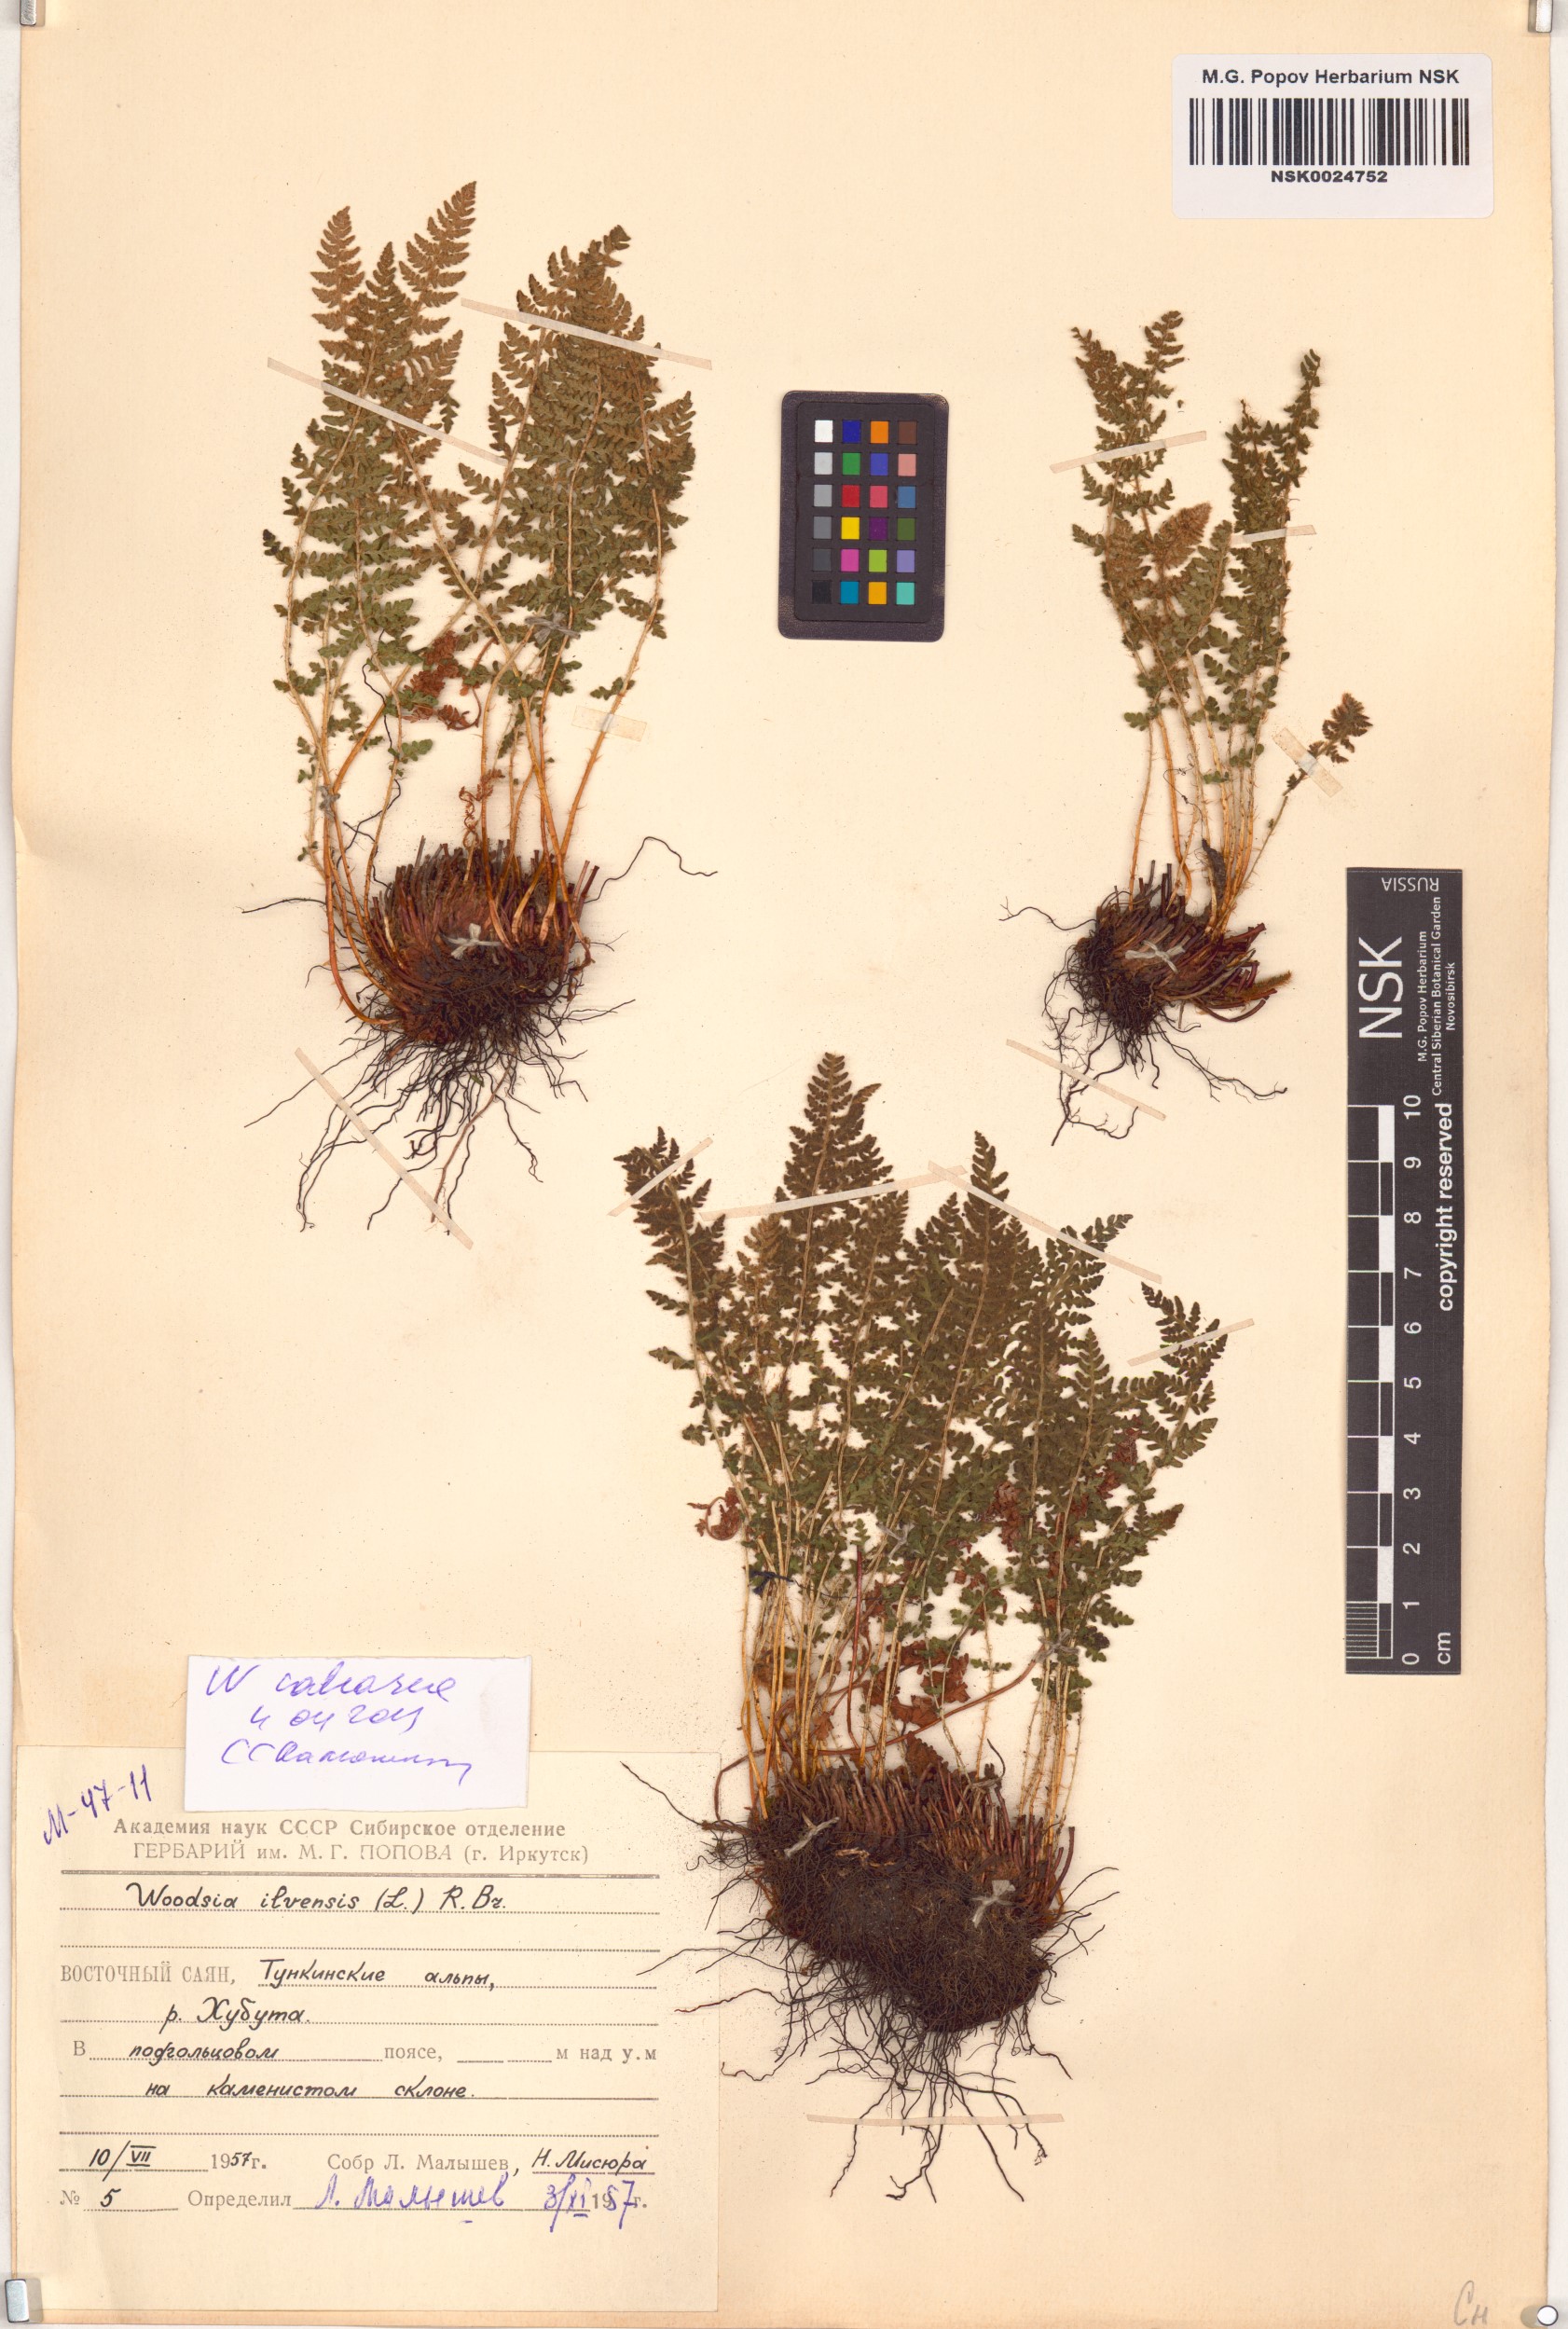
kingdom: Plantae
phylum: Tracheophyta
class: Polypodiopsida
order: Polypodiales
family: Woodsiaceae
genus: Woodsia
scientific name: Woodsia calcarea
